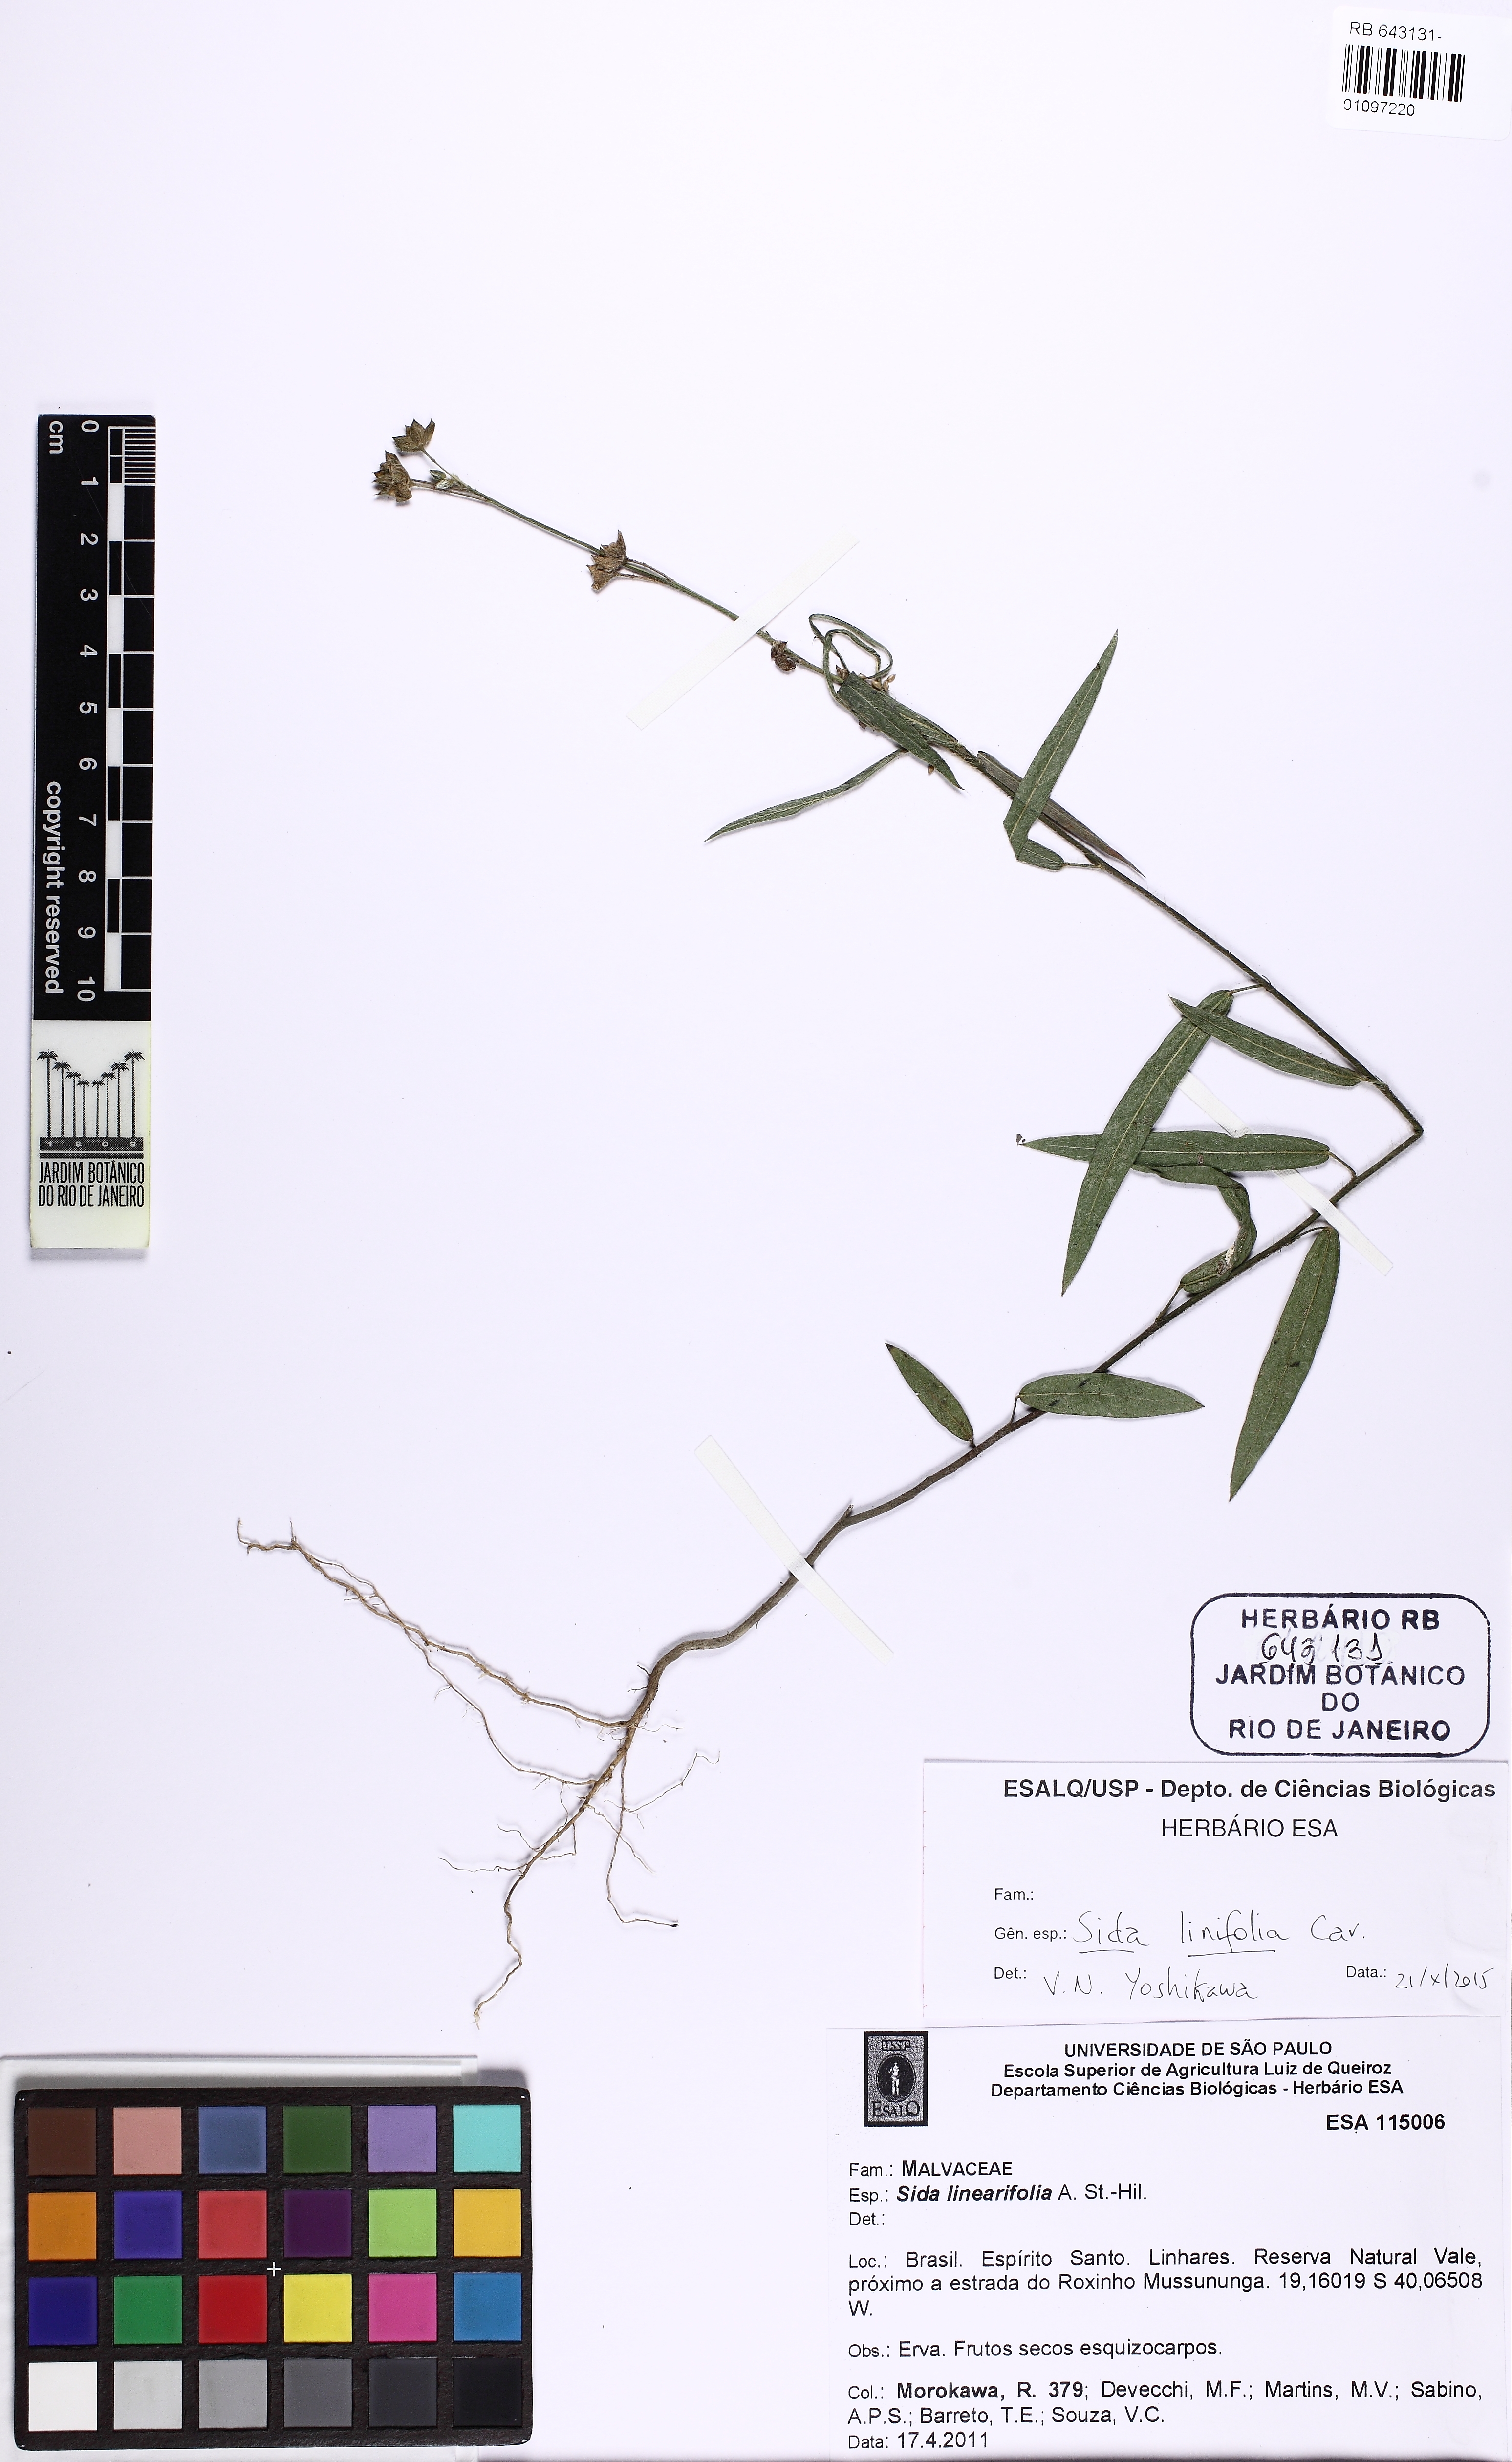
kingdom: Plantae
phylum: Tracheophyta
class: Magnoliopsida
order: Malvales
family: Malvaceae
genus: Sida
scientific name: Sida linifolia
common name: Flaxleaf fanpetals
